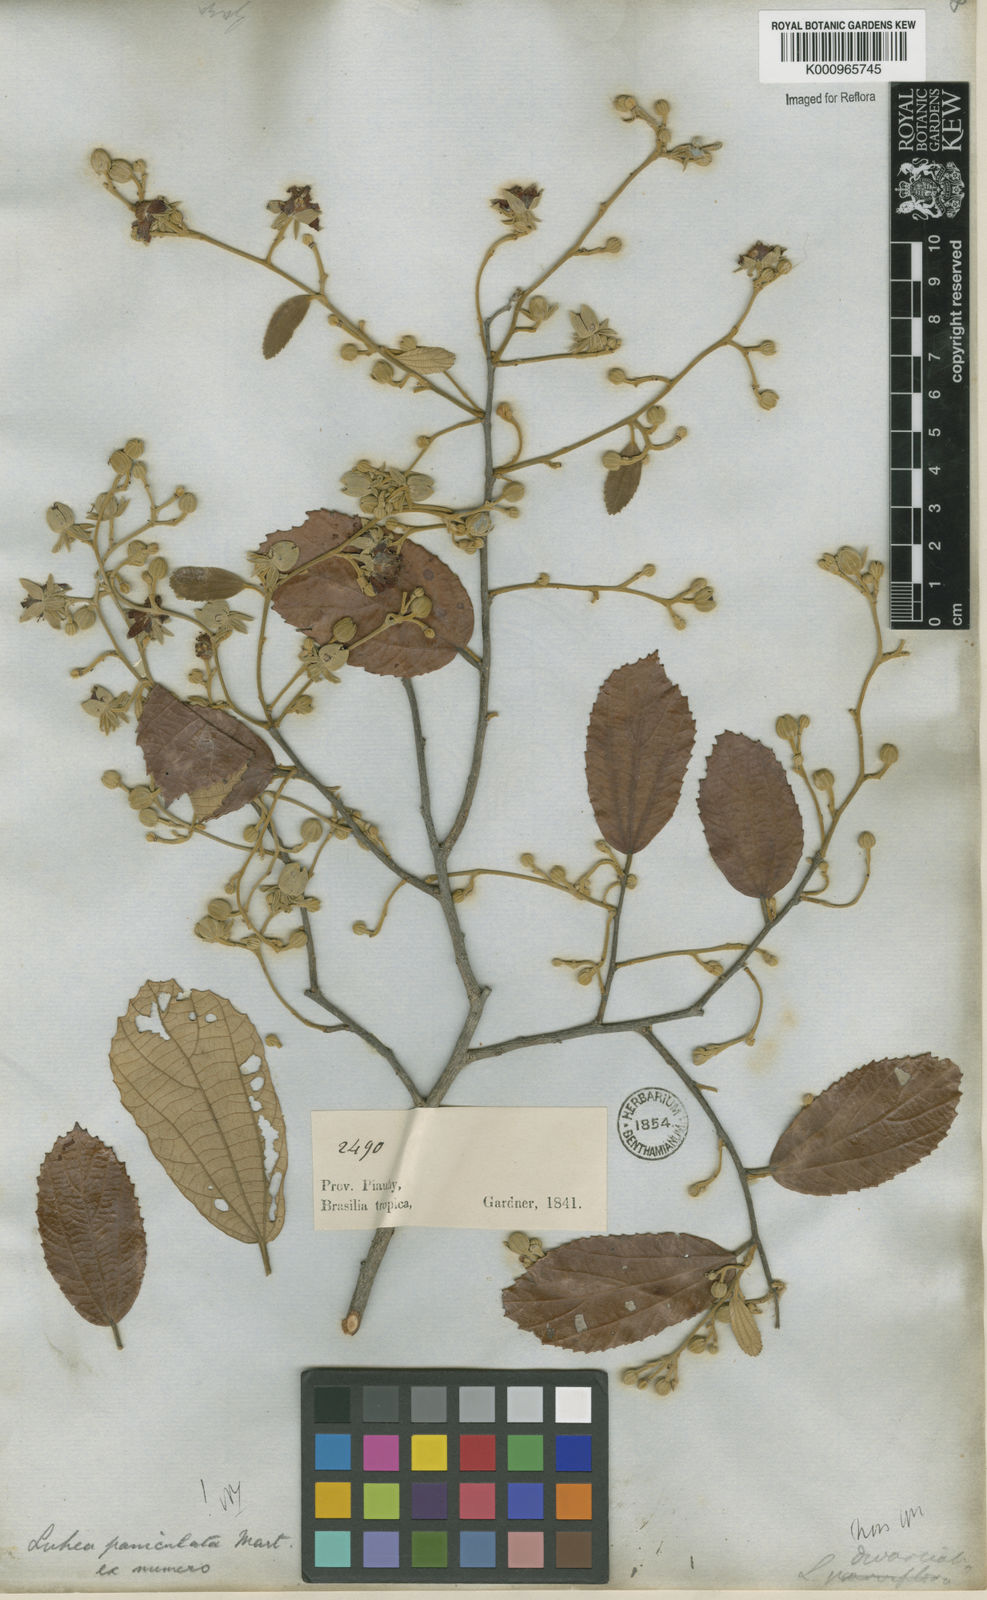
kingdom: Plantae
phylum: Tracheophyta
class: Magnoliopsida
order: Malvales
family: Malvaceae
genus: Luehea
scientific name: Luehea paniculata
